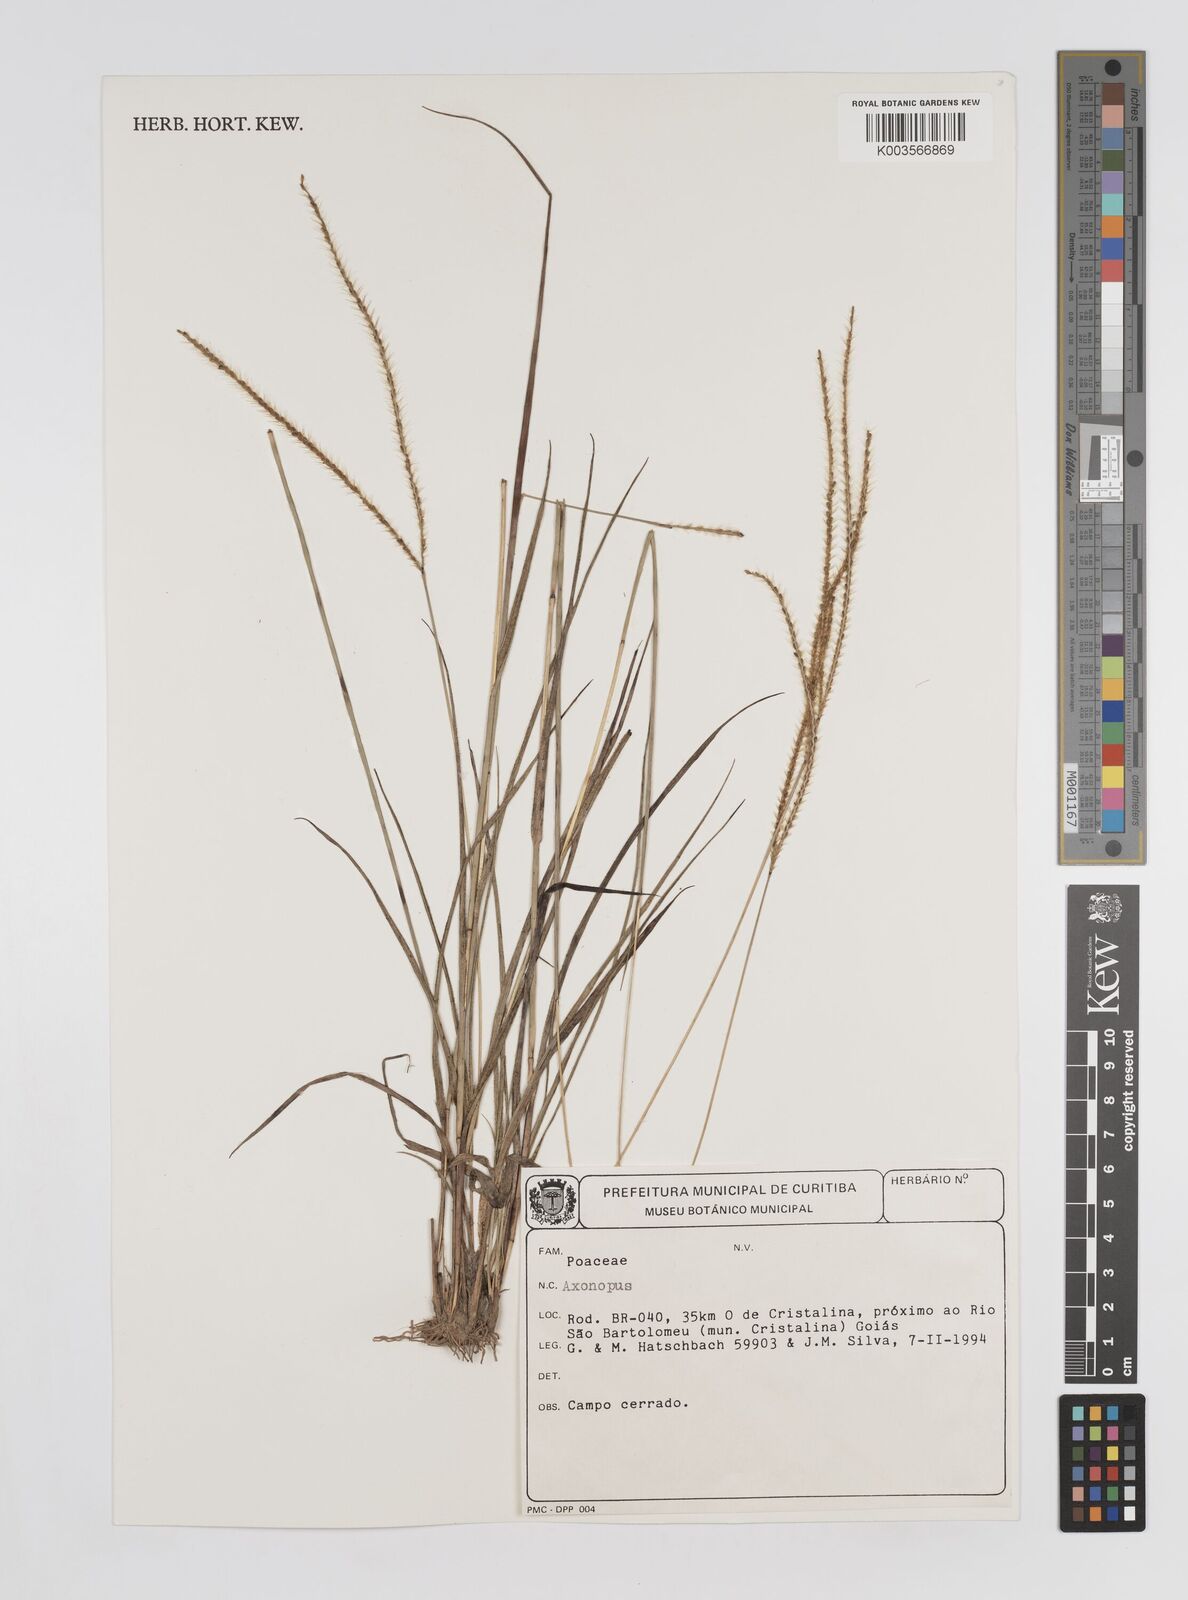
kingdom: Plantae
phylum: Tracheophyta
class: Liliopsida
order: Poales
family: Poaceae
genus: Axonopus
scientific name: Axonopus aureus
